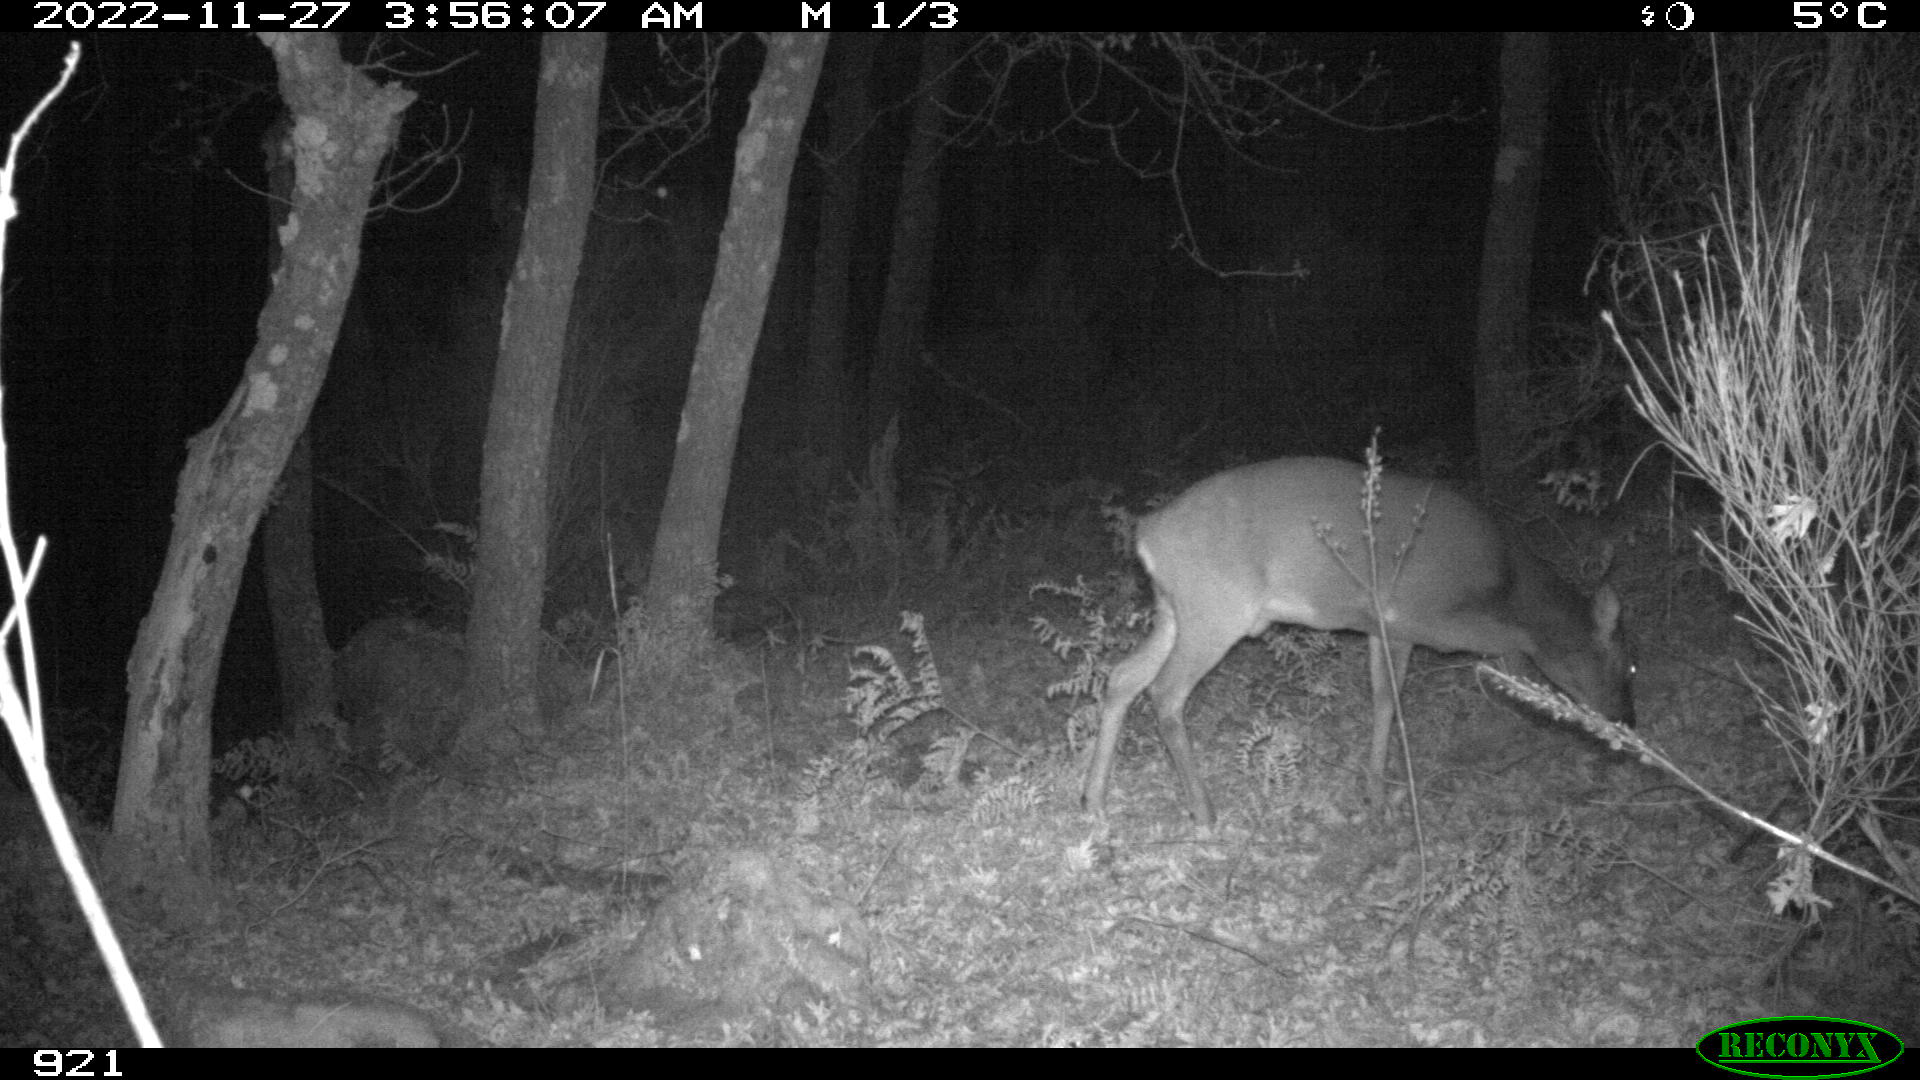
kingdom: Animalia
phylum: Chordata
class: Mammalia
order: Artiodactyla
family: Cervidae
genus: Capreolus
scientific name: Capreolus capreolus
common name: Western roe deer
